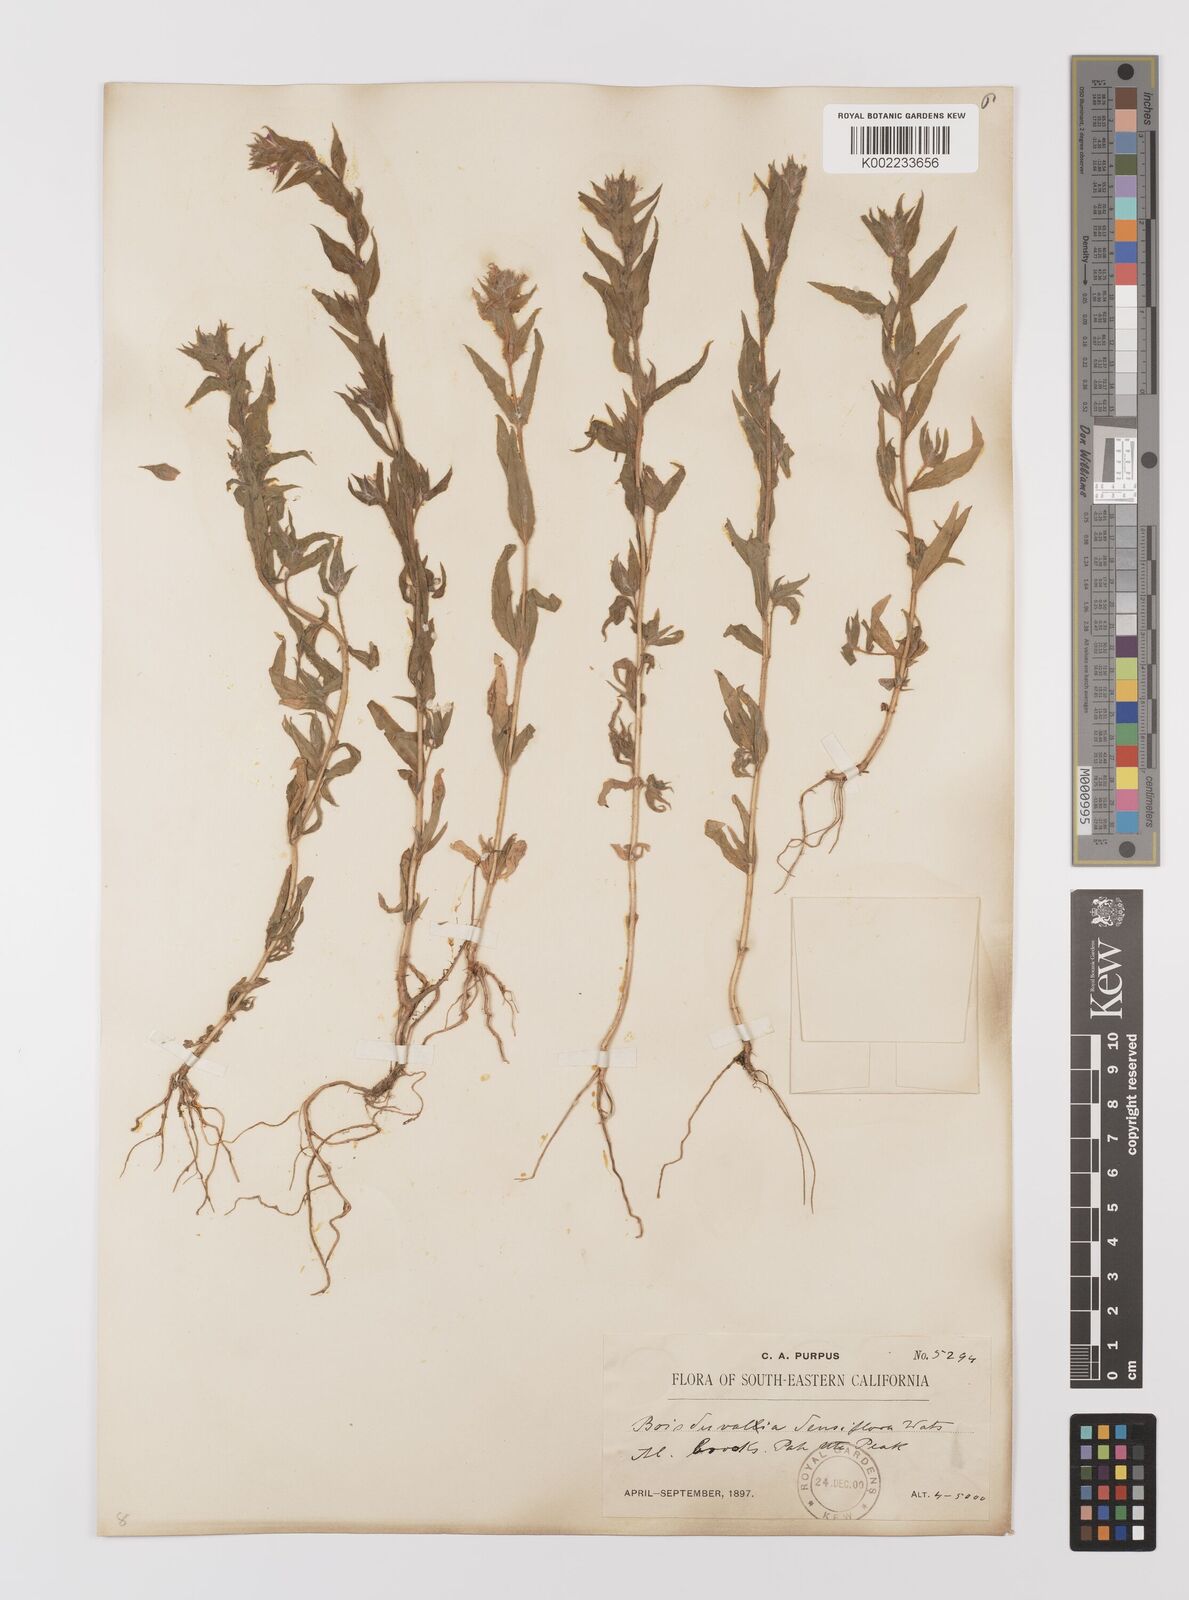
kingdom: Plantae
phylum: Tracheophyta
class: Magnoliopsida
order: Myrtales
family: Onagraceae
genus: Epilobium
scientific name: Epilobium densiflorum
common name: Dense spike-primrose
